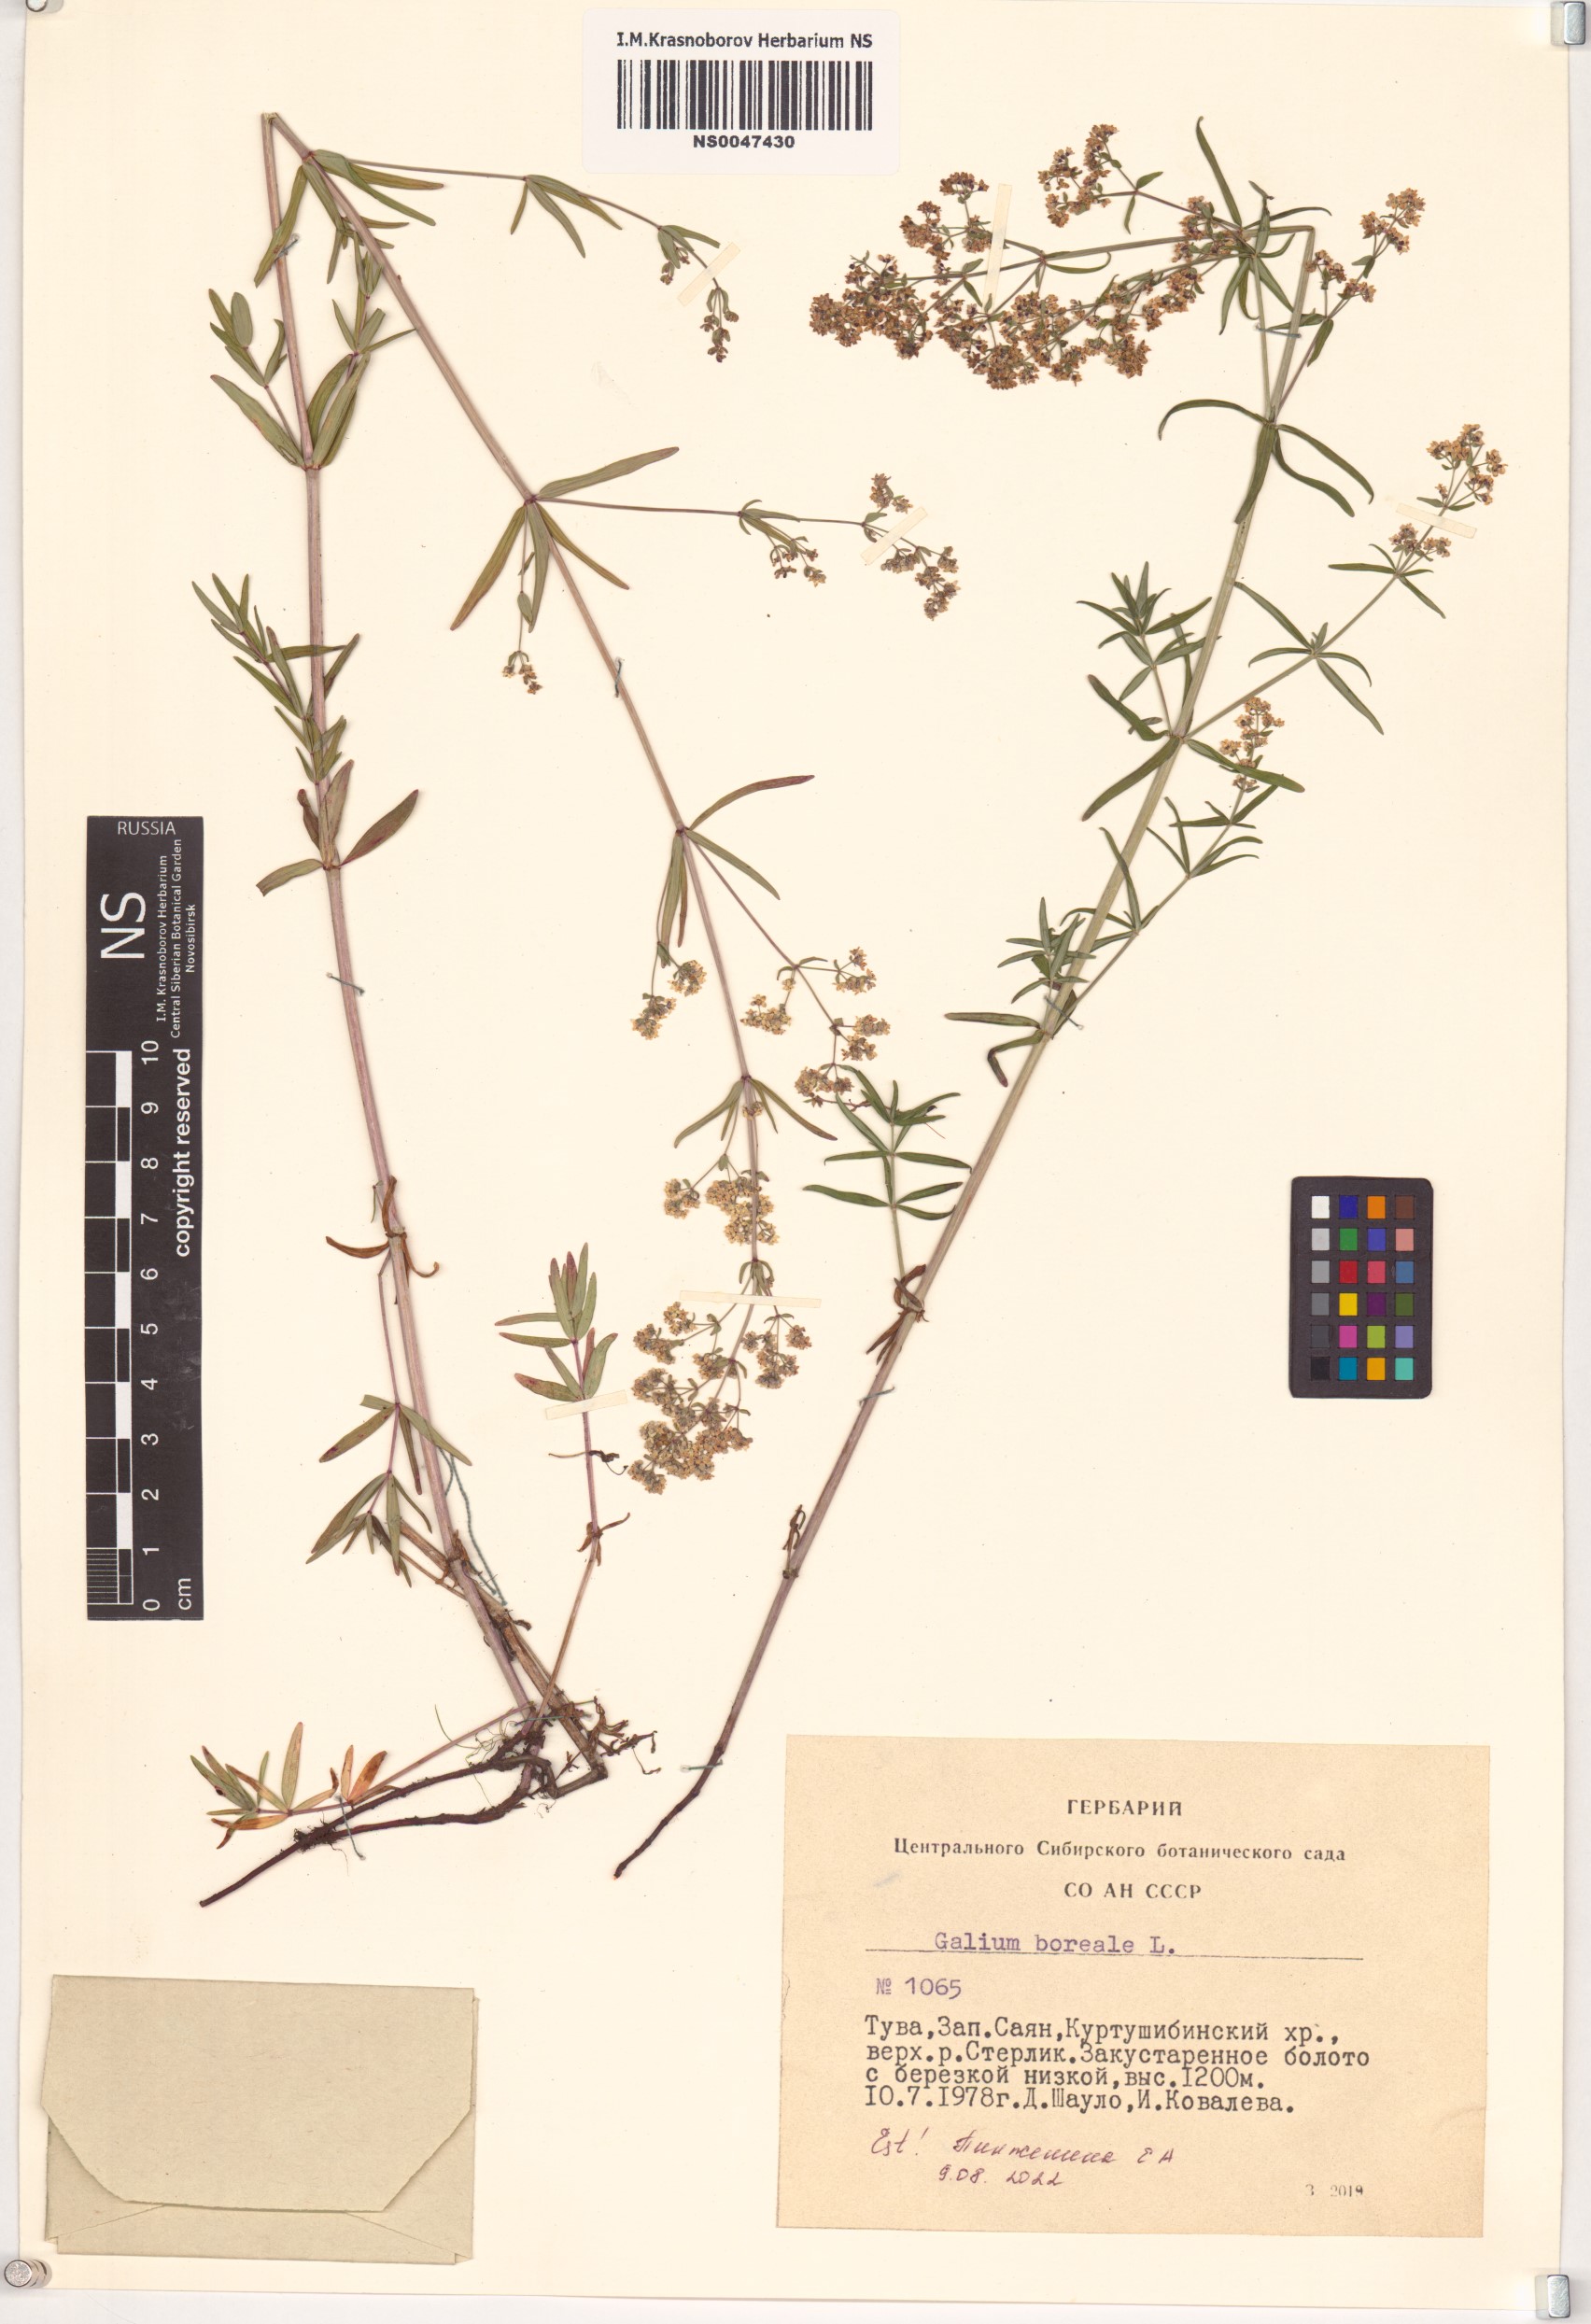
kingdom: Plantae
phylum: Tracheophyta
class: Magnoliopsida
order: Gentianales
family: Rubiaceae
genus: Galium
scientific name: Galium boreale
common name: Northern bedstraw
